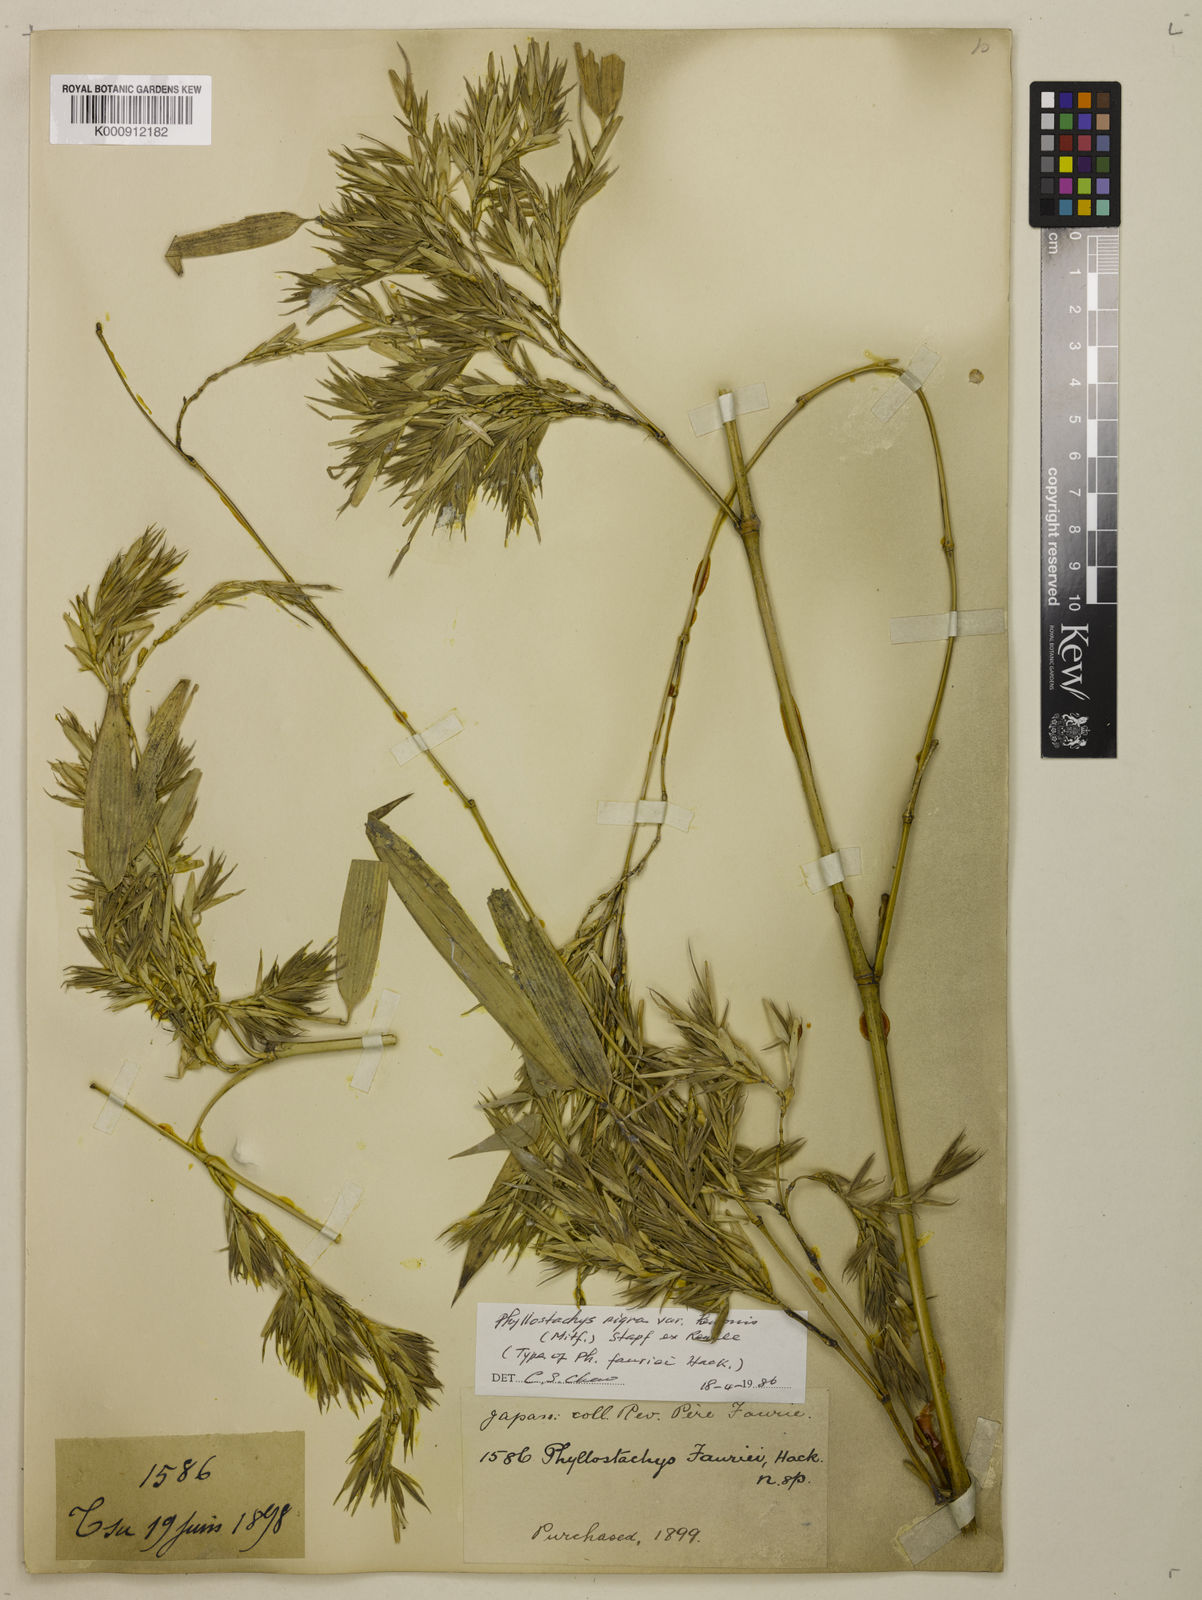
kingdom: Plantae
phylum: Tracheophyta
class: Liliopsida
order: Poales
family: Poaceae
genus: Phyllostachys
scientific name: Phyllostachys nigra
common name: Black bamboo
